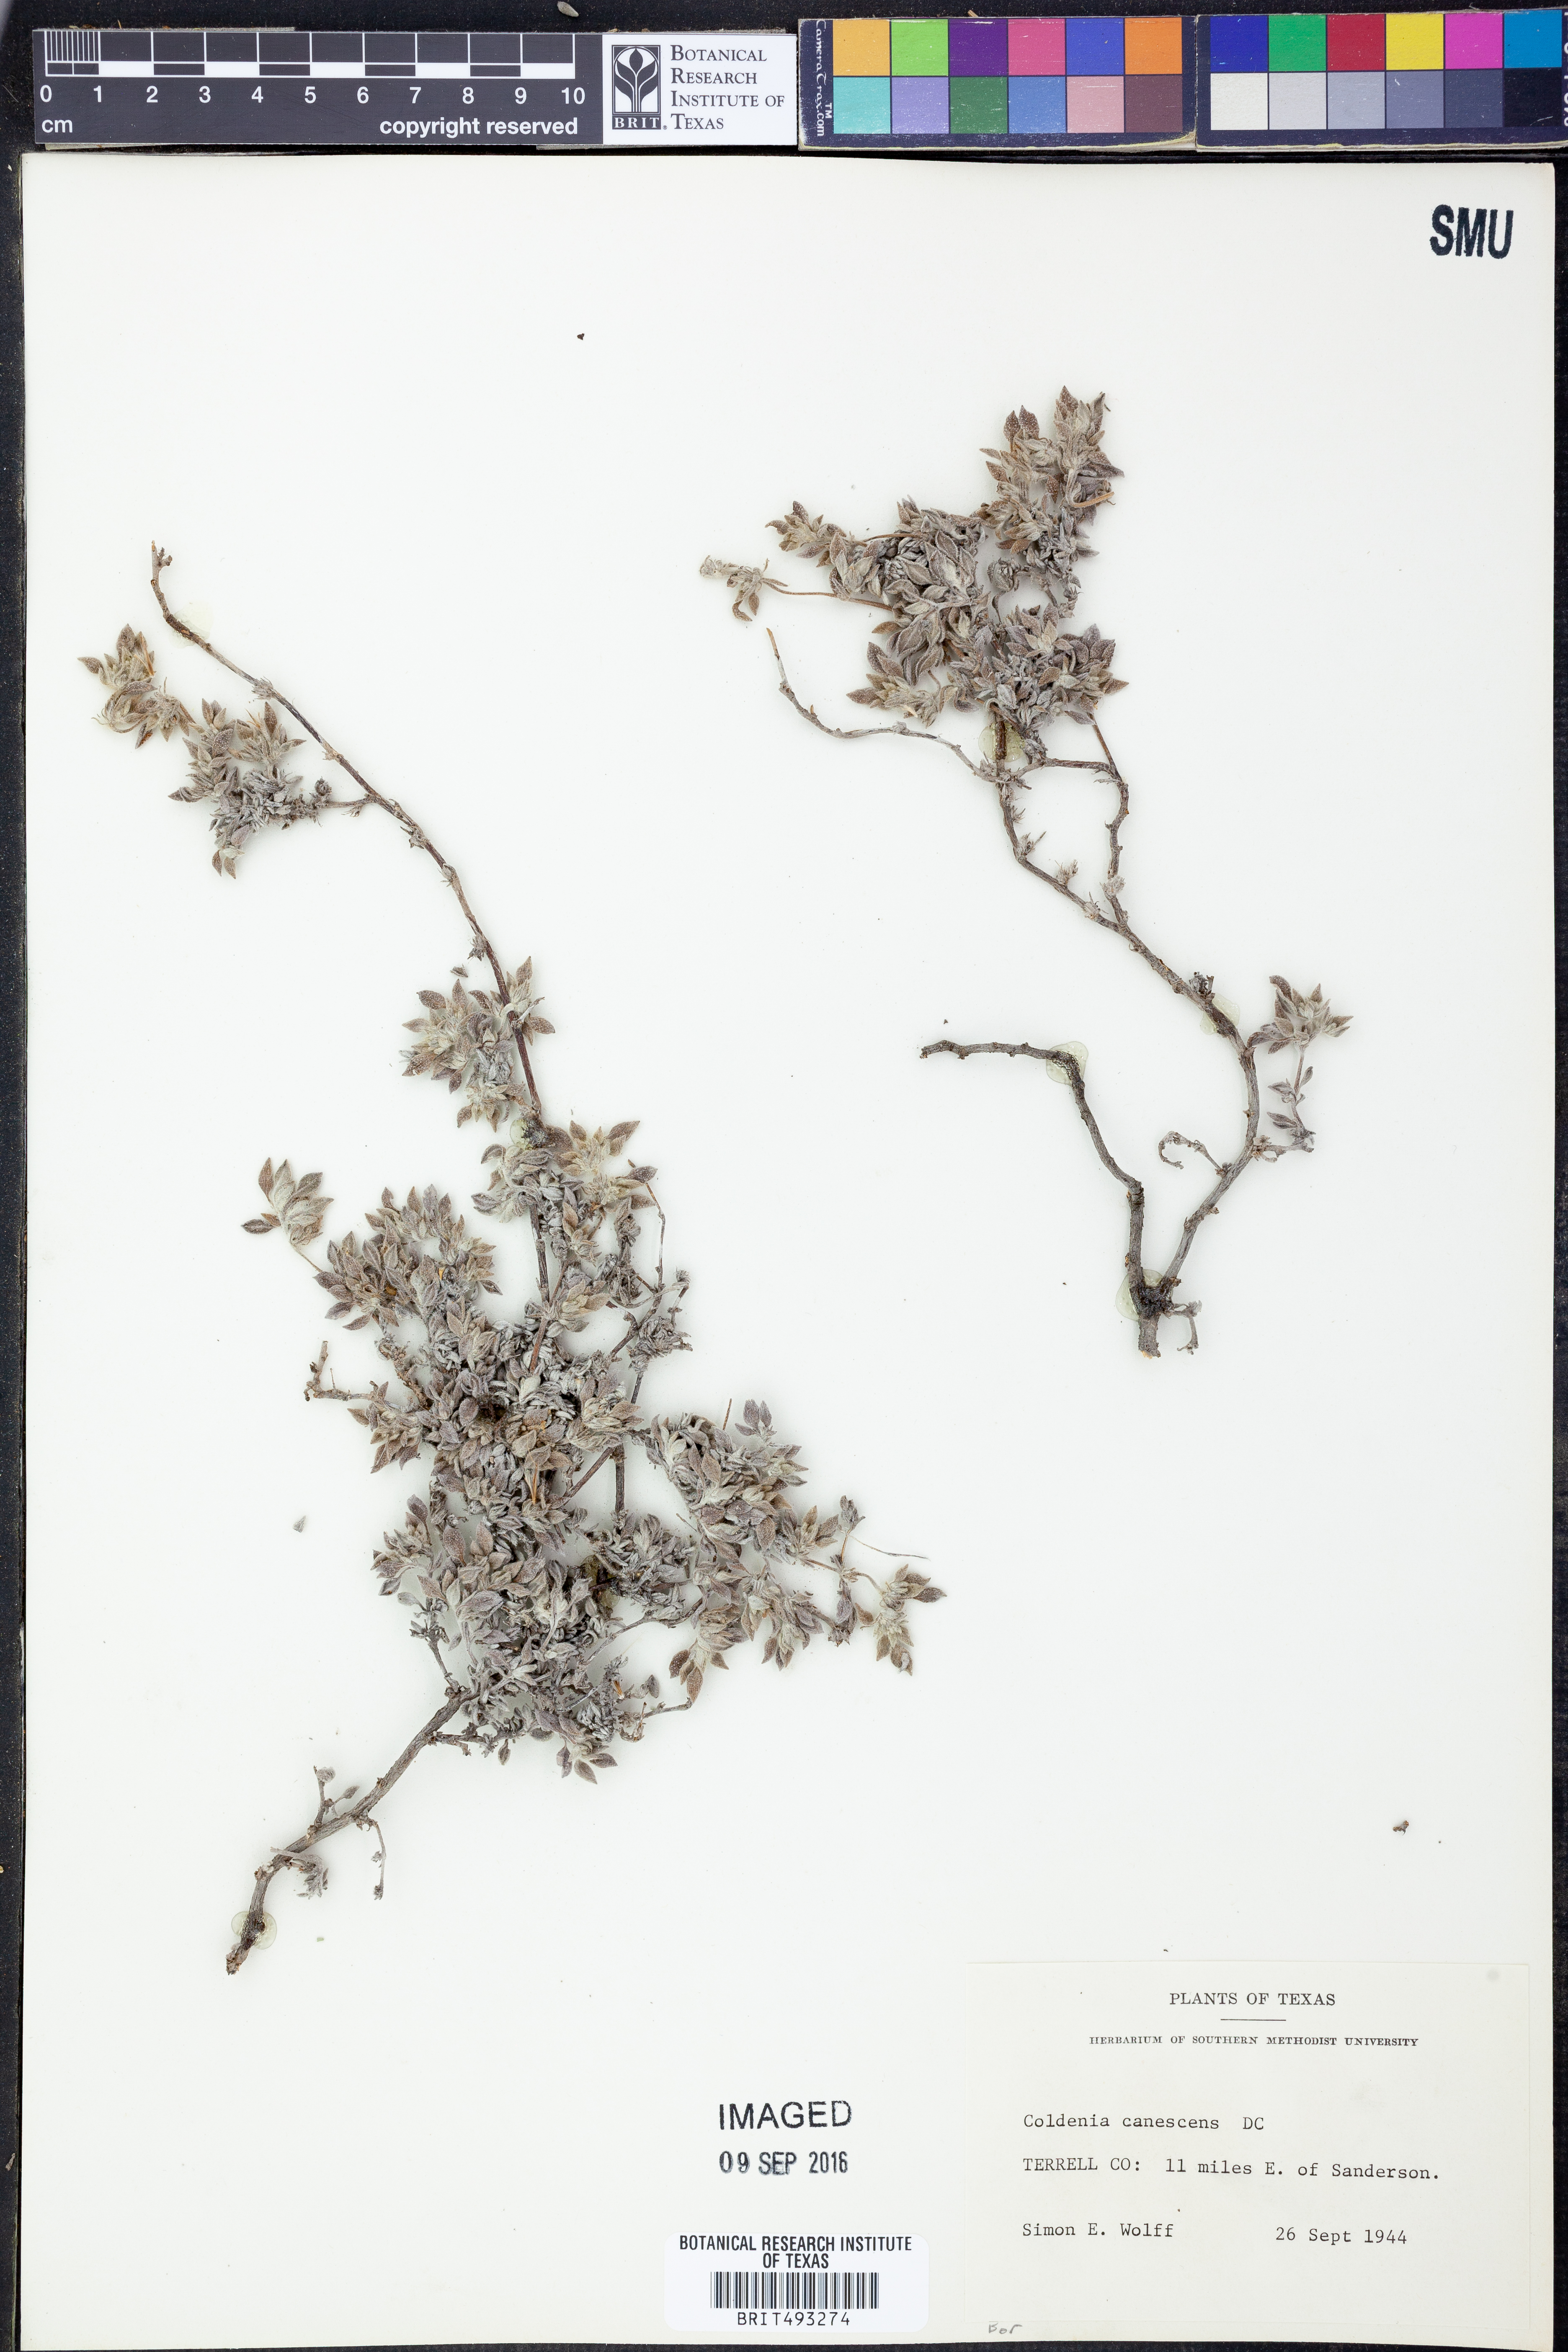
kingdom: Plantae
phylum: Tracheophyta
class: Magnoliopsida
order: Boraginales
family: Ehretiaceae
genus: Tiquilia
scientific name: Tiquilia canescens
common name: Hairy tiquilia
